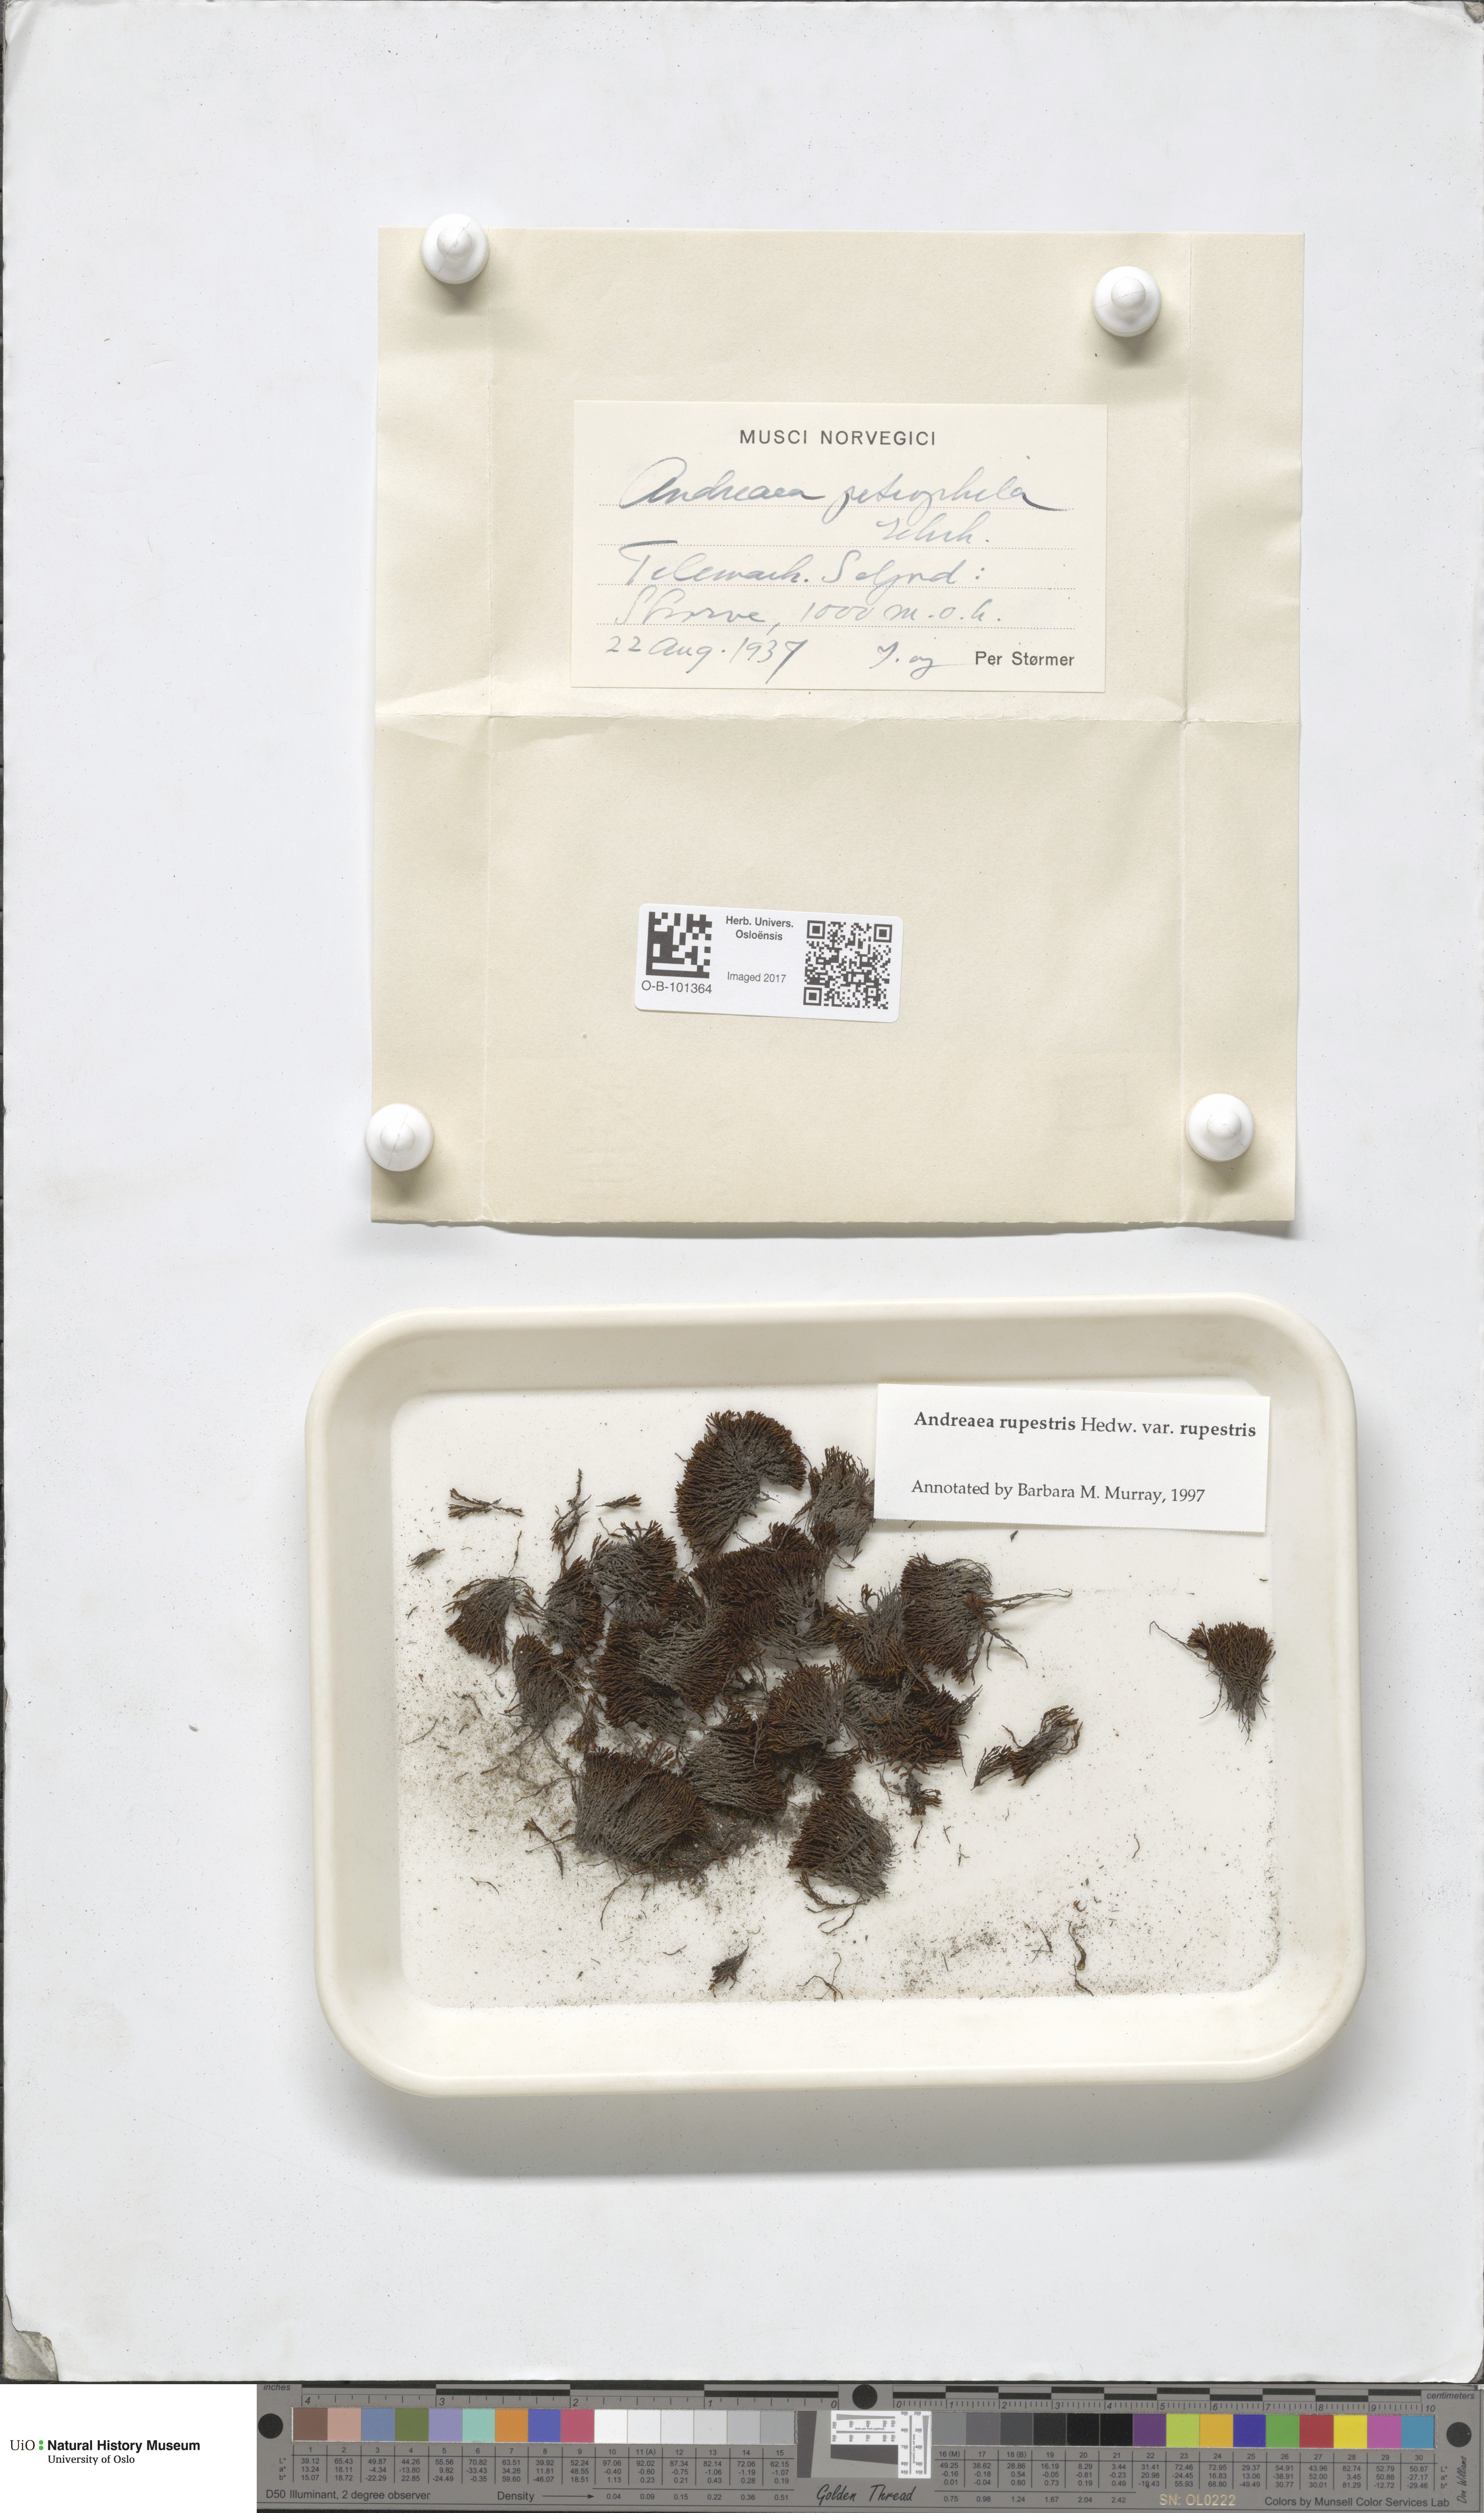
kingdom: Plantae
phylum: Bryophyta
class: Andreaeopsida
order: Andreaeales
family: Andreaeaceae
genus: Andreaea
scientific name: Andreaea rupestris
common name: Black rock moss
